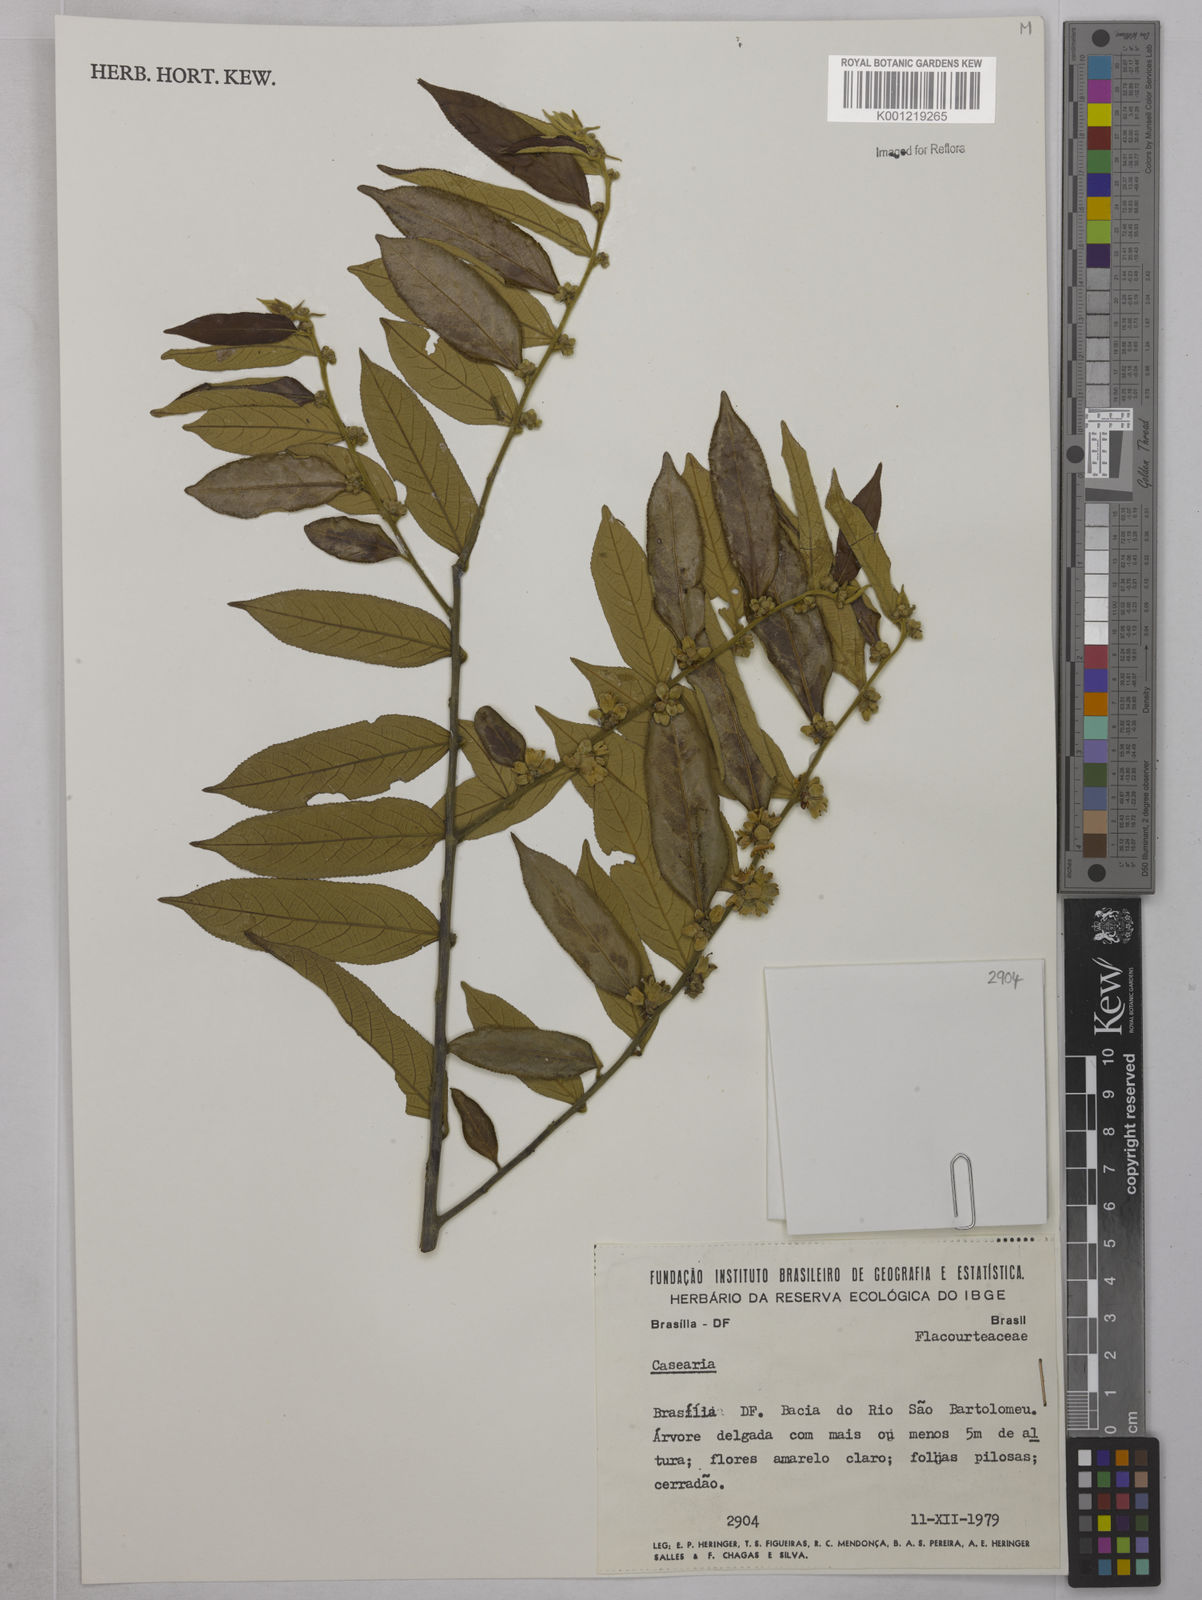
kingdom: Plantae
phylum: Tracheophyta
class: Magnoliopsida
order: Malpighiales
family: Salicaceae
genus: Casearia
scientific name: Casearia
